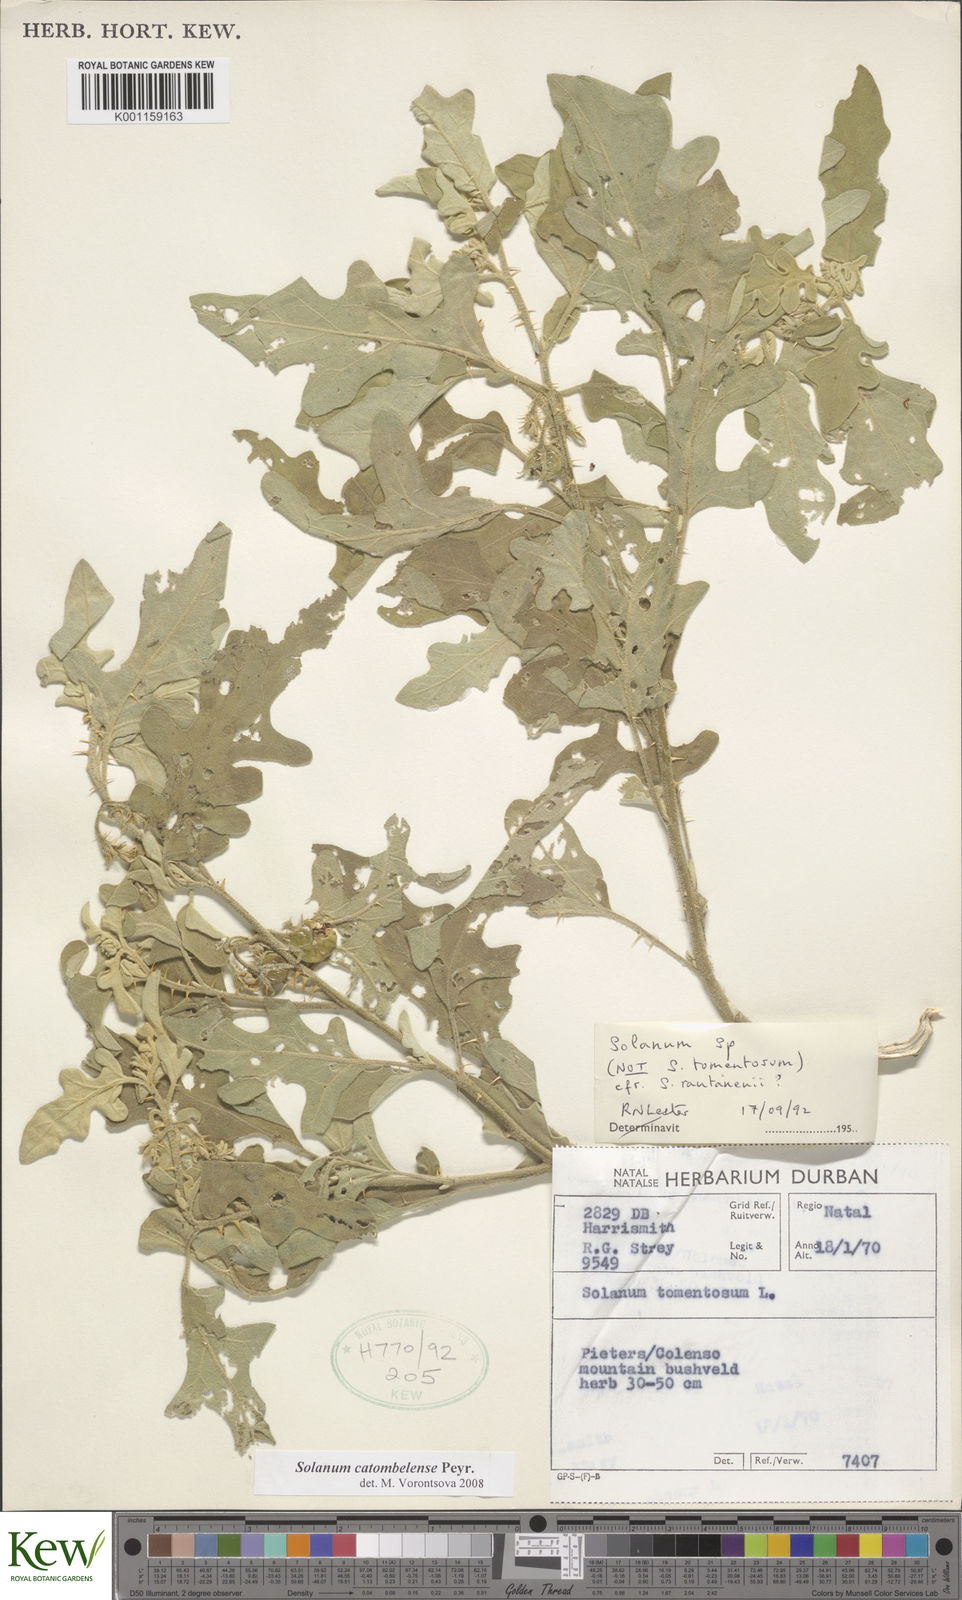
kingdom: Plantae
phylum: Tracheophyta
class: Magnoliopsida
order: Solanales
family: Solanaceae
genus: Solanum
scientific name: Solanum catombelense
